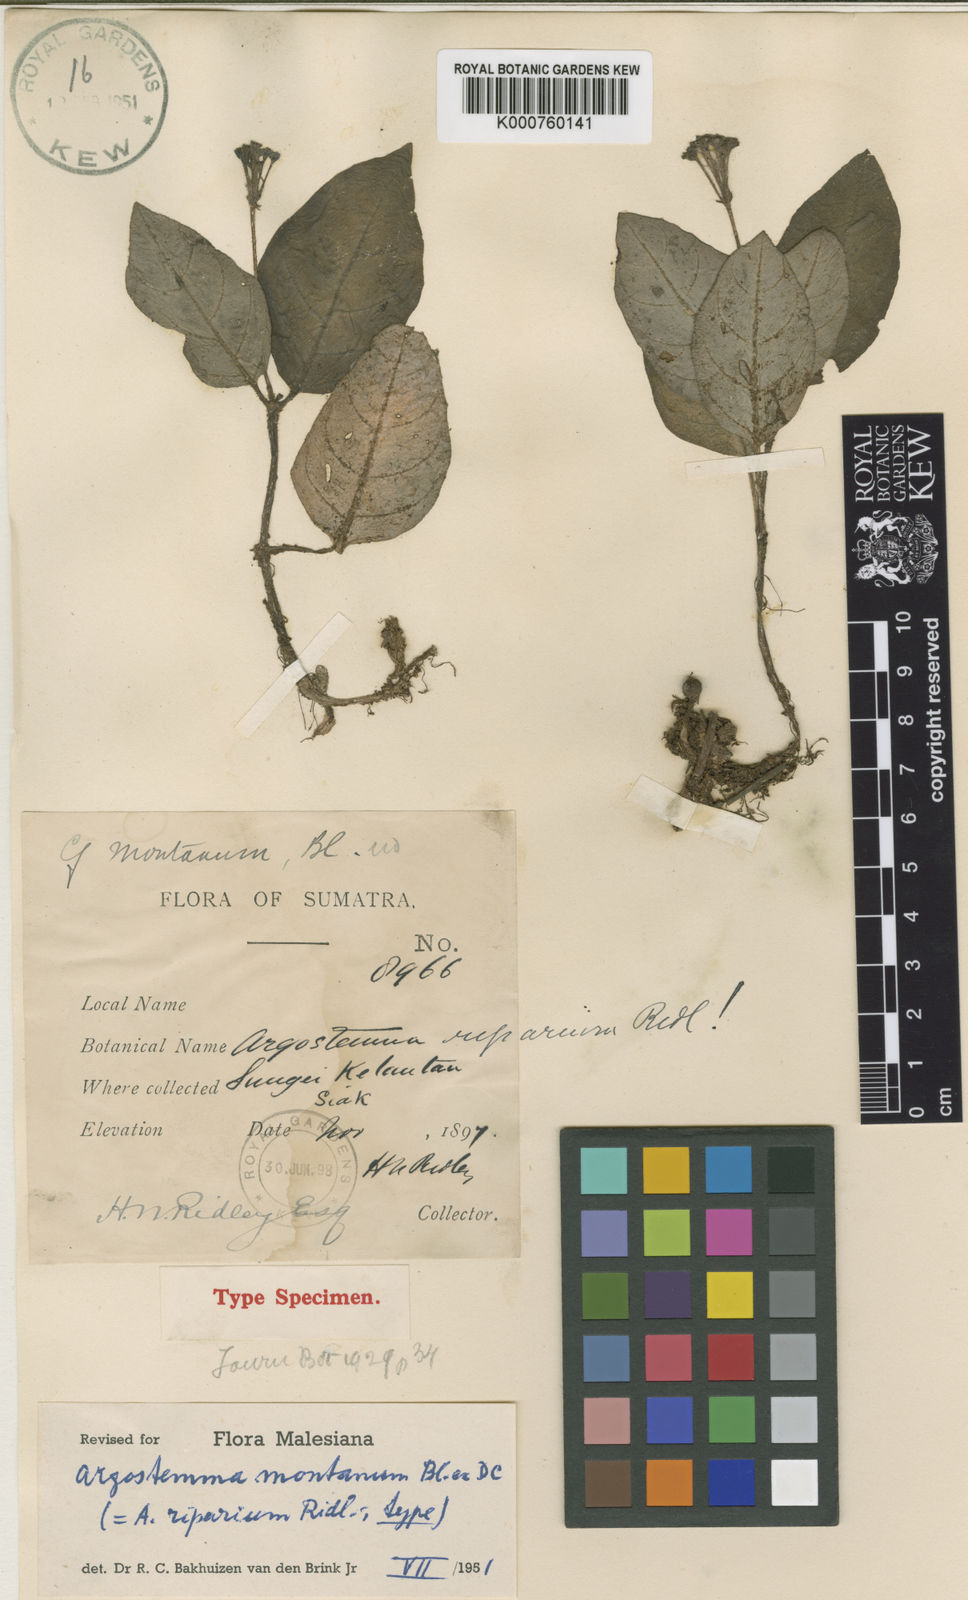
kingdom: Plantae
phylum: Tracheophyta
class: Magnoliopsida
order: Gentianales
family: Rubiaceae
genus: Argostemma
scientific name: Argostemma montanum
